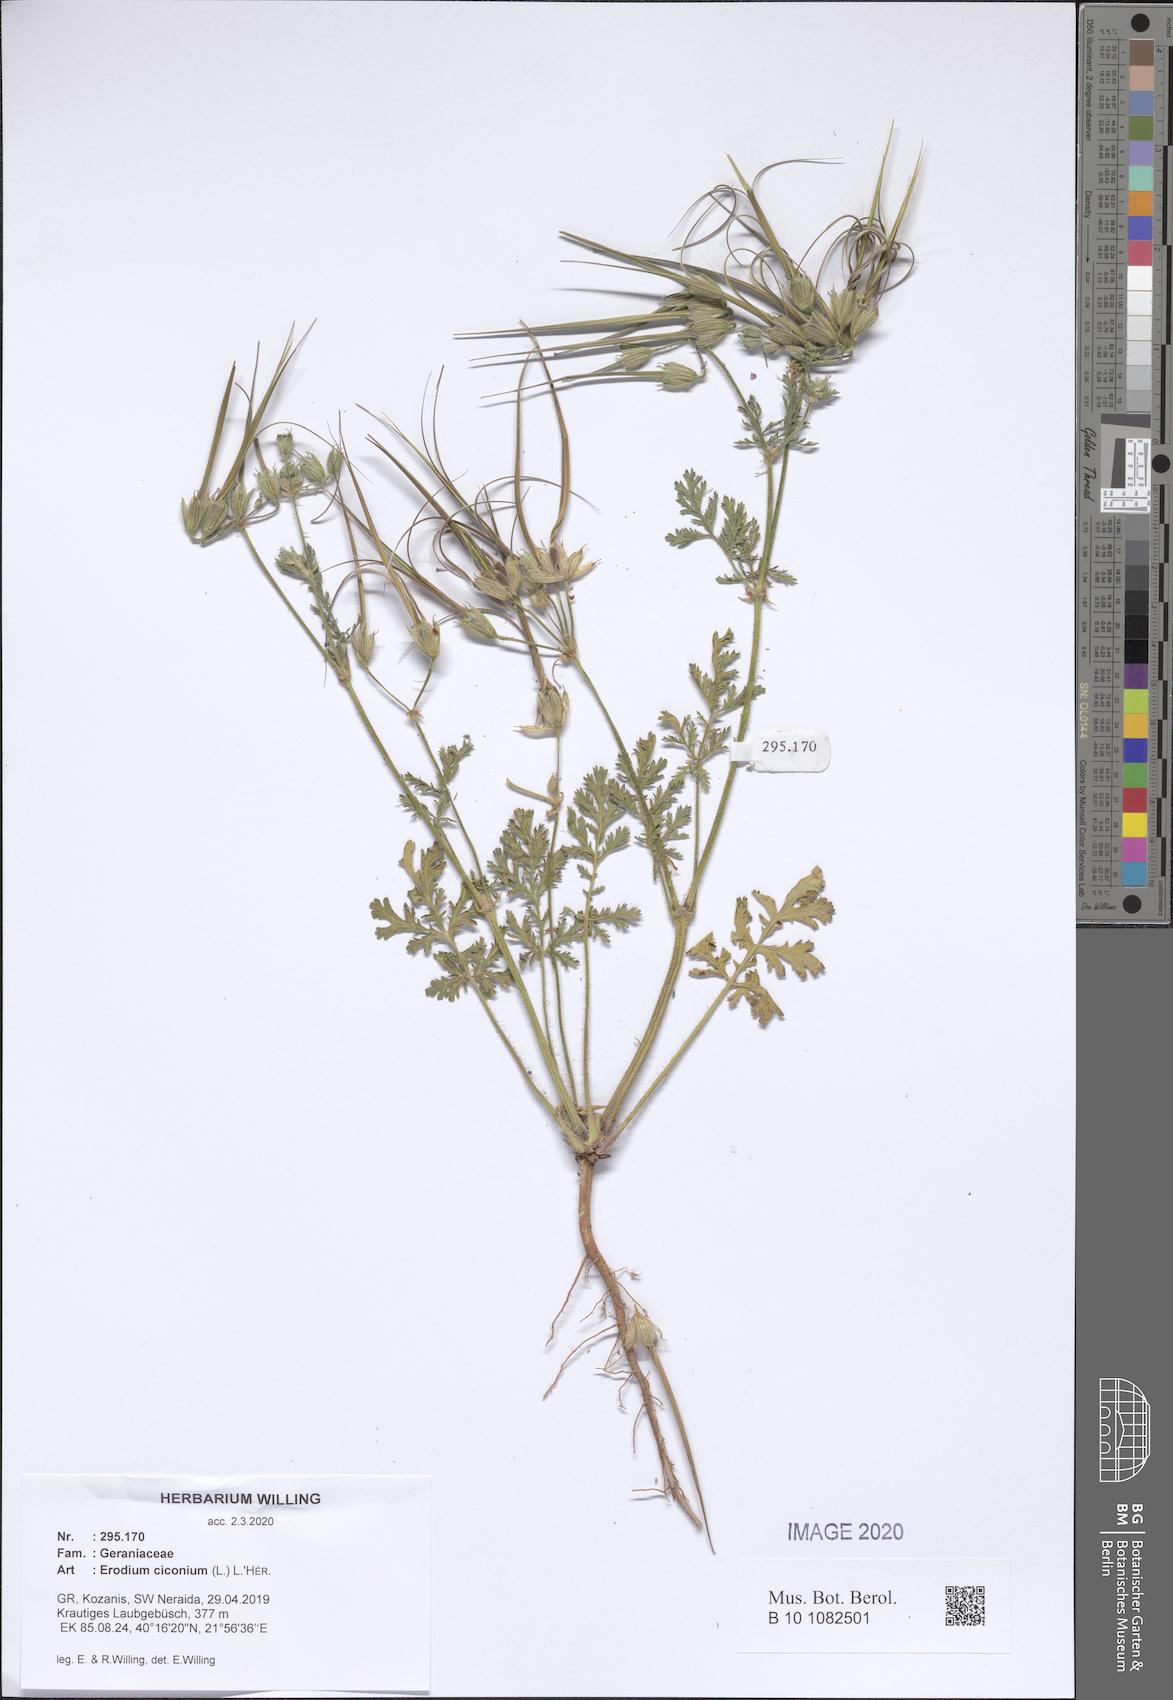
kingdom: Plantae
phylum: Tracheophyta
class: Magnoliopsida
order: Geraniales
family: Geraniaceae
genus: Erodium
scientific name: Erodium ciconium
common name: Common stork's bill
